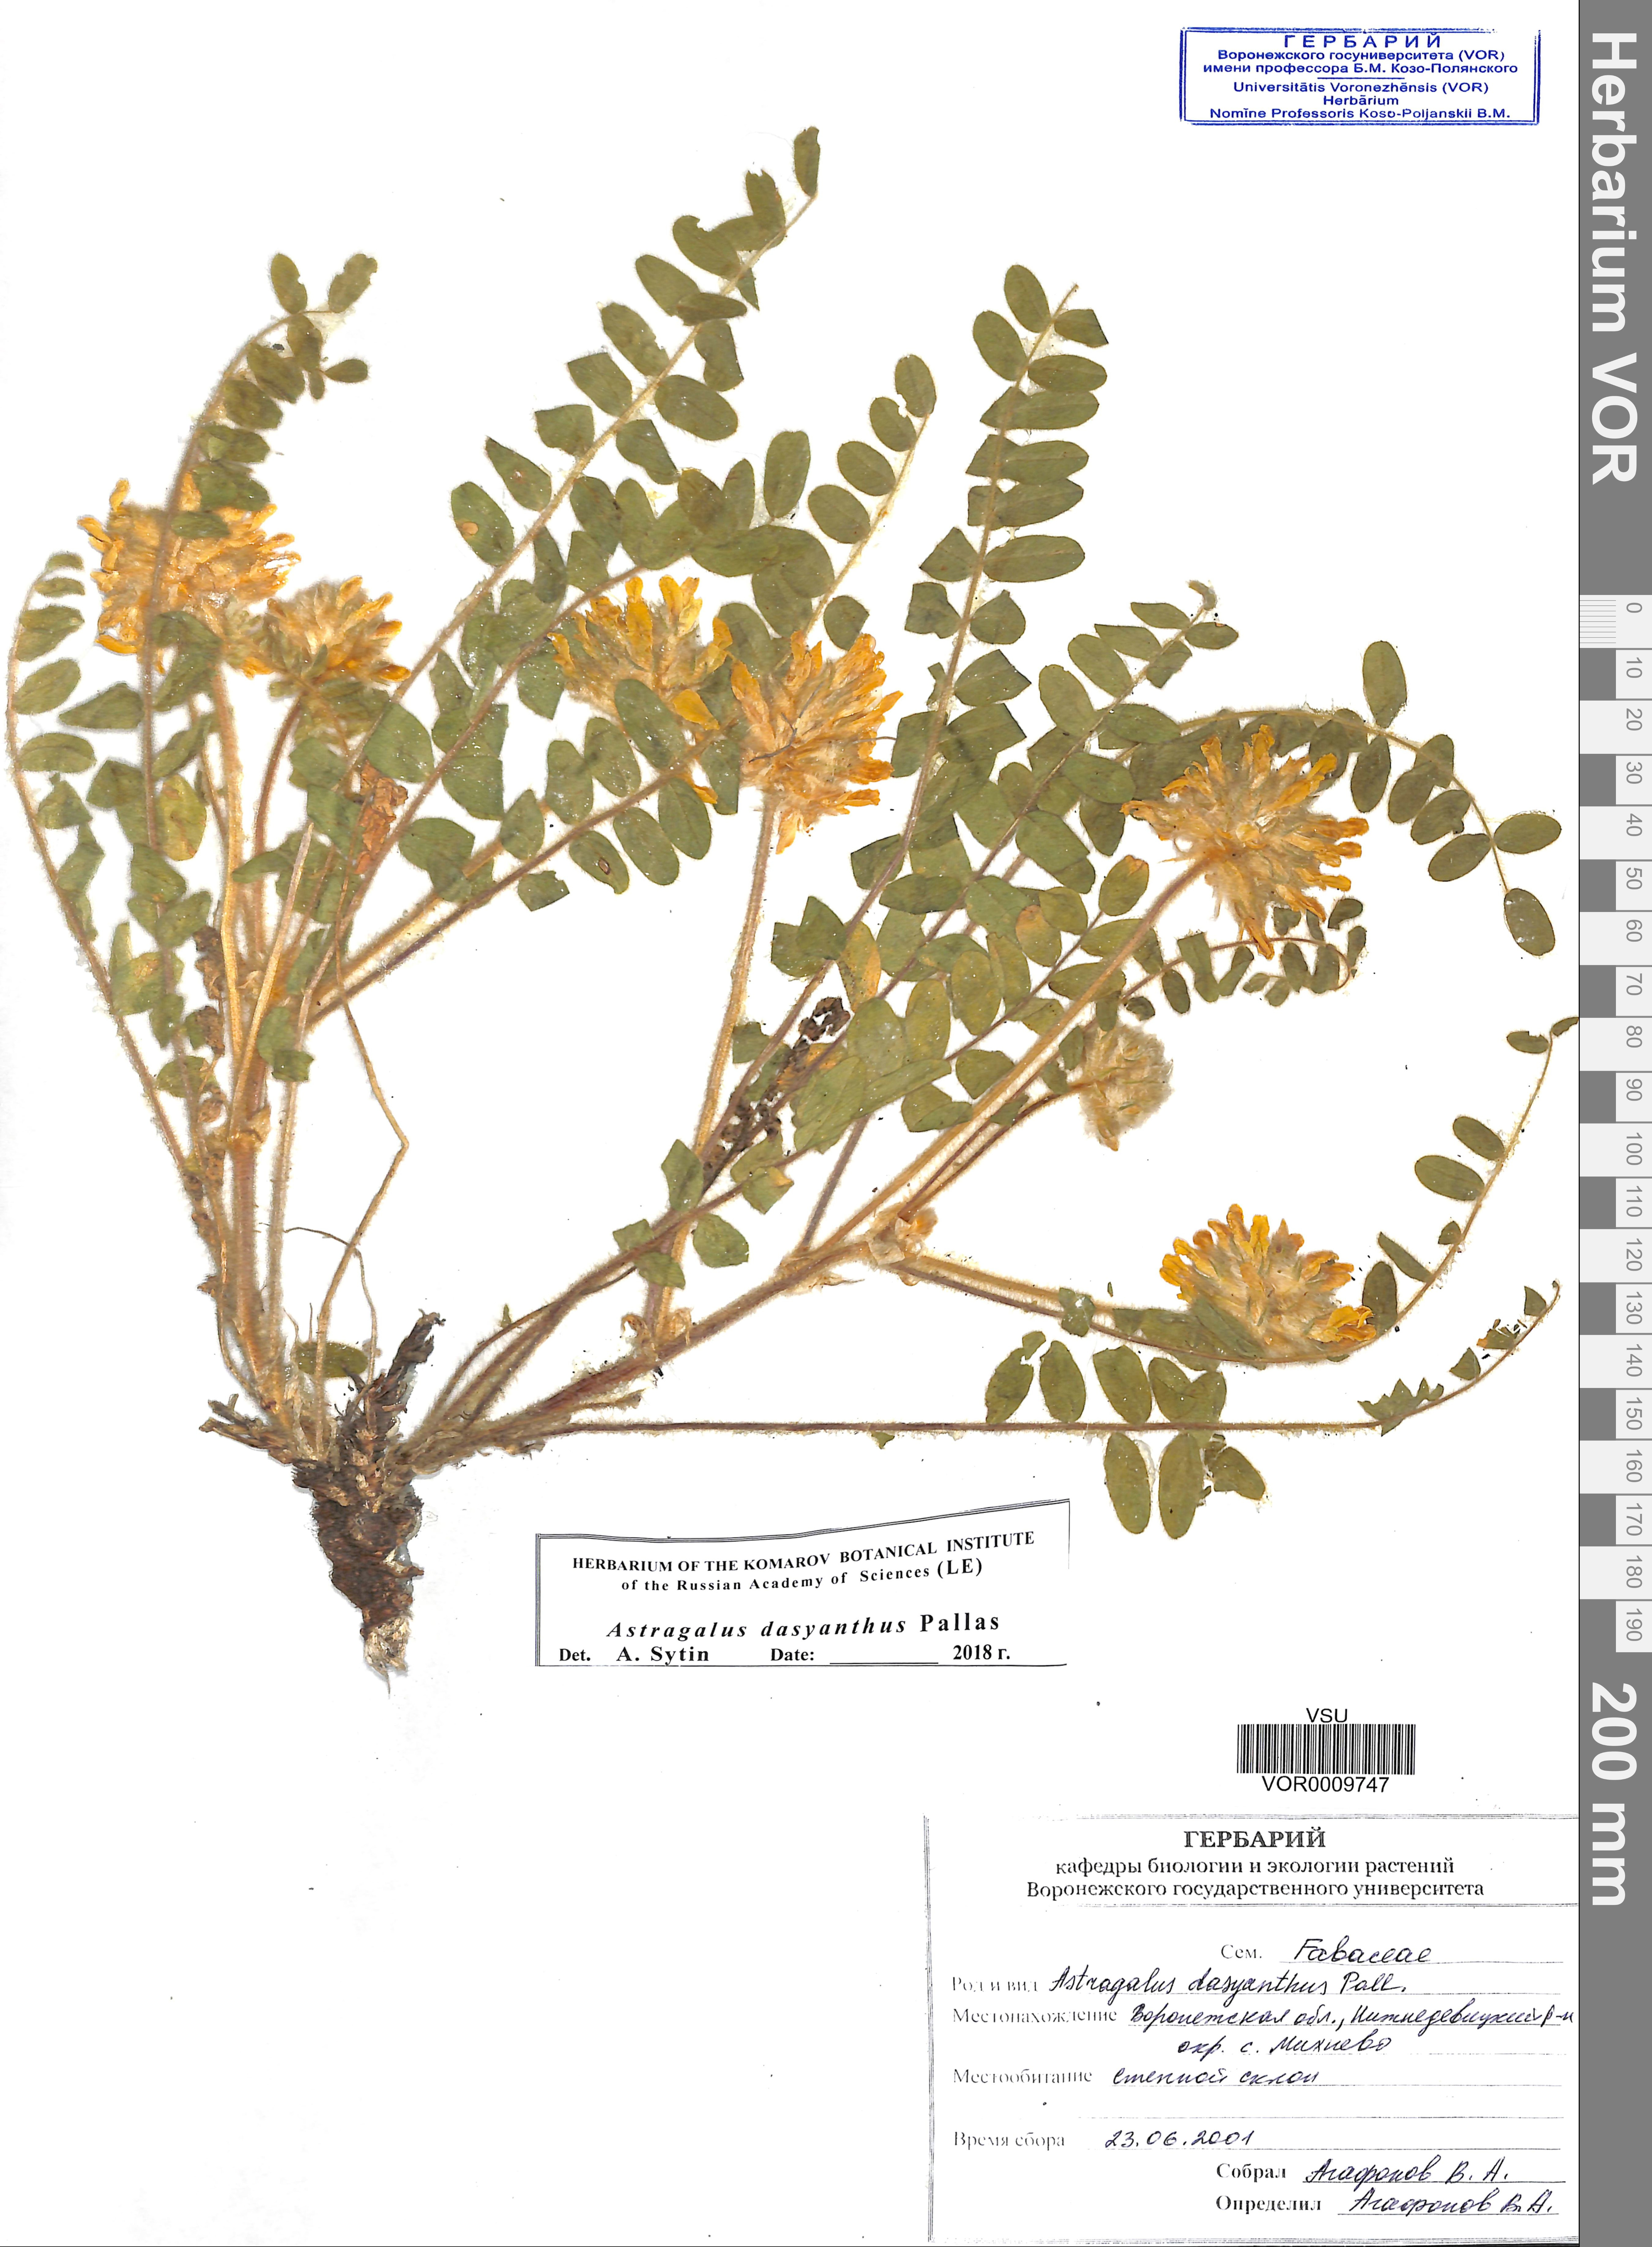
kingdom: Plantae
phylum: Tracheophyta
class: Magnoliopsida
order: Fabales
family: Fabaceae
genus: Astragalus
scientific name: Astragalus dasyanthus
